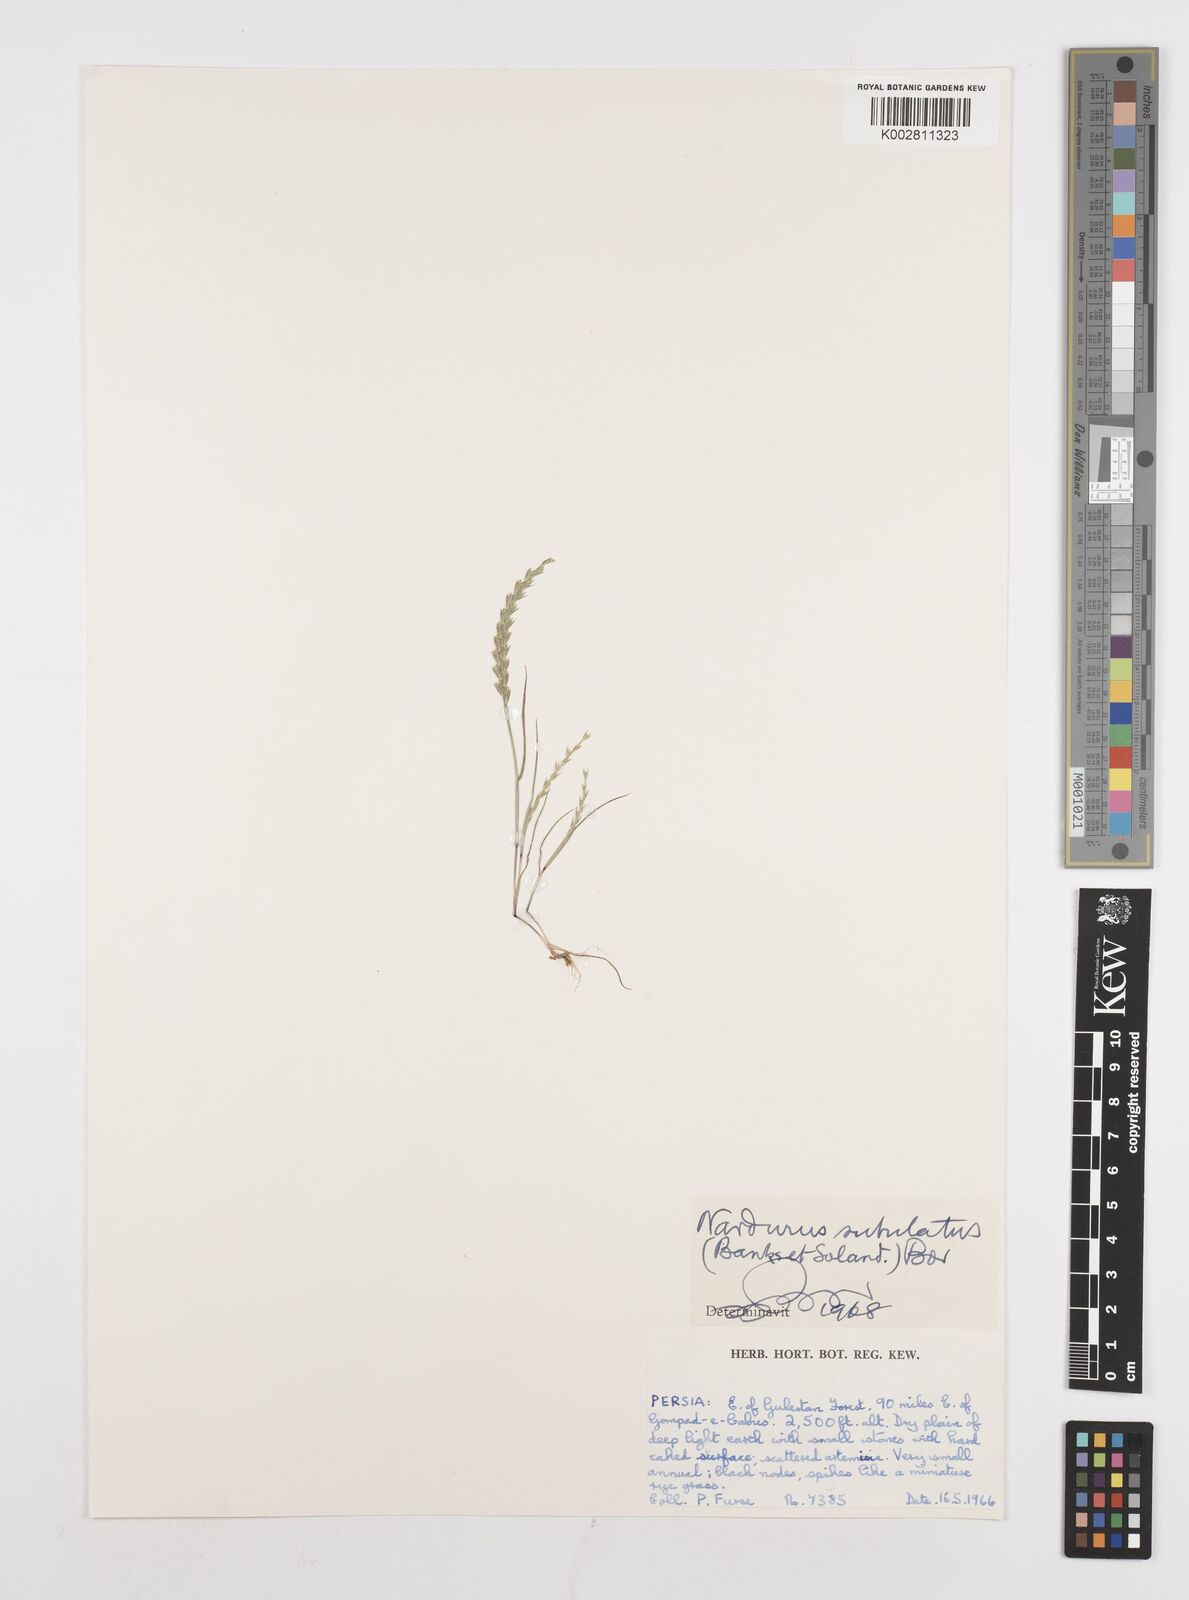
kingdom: Plantae
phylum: Tracheophyta
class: Liliopsida
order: Poales
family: Poaceae
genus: Festuca
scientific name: Festuca orientalis
